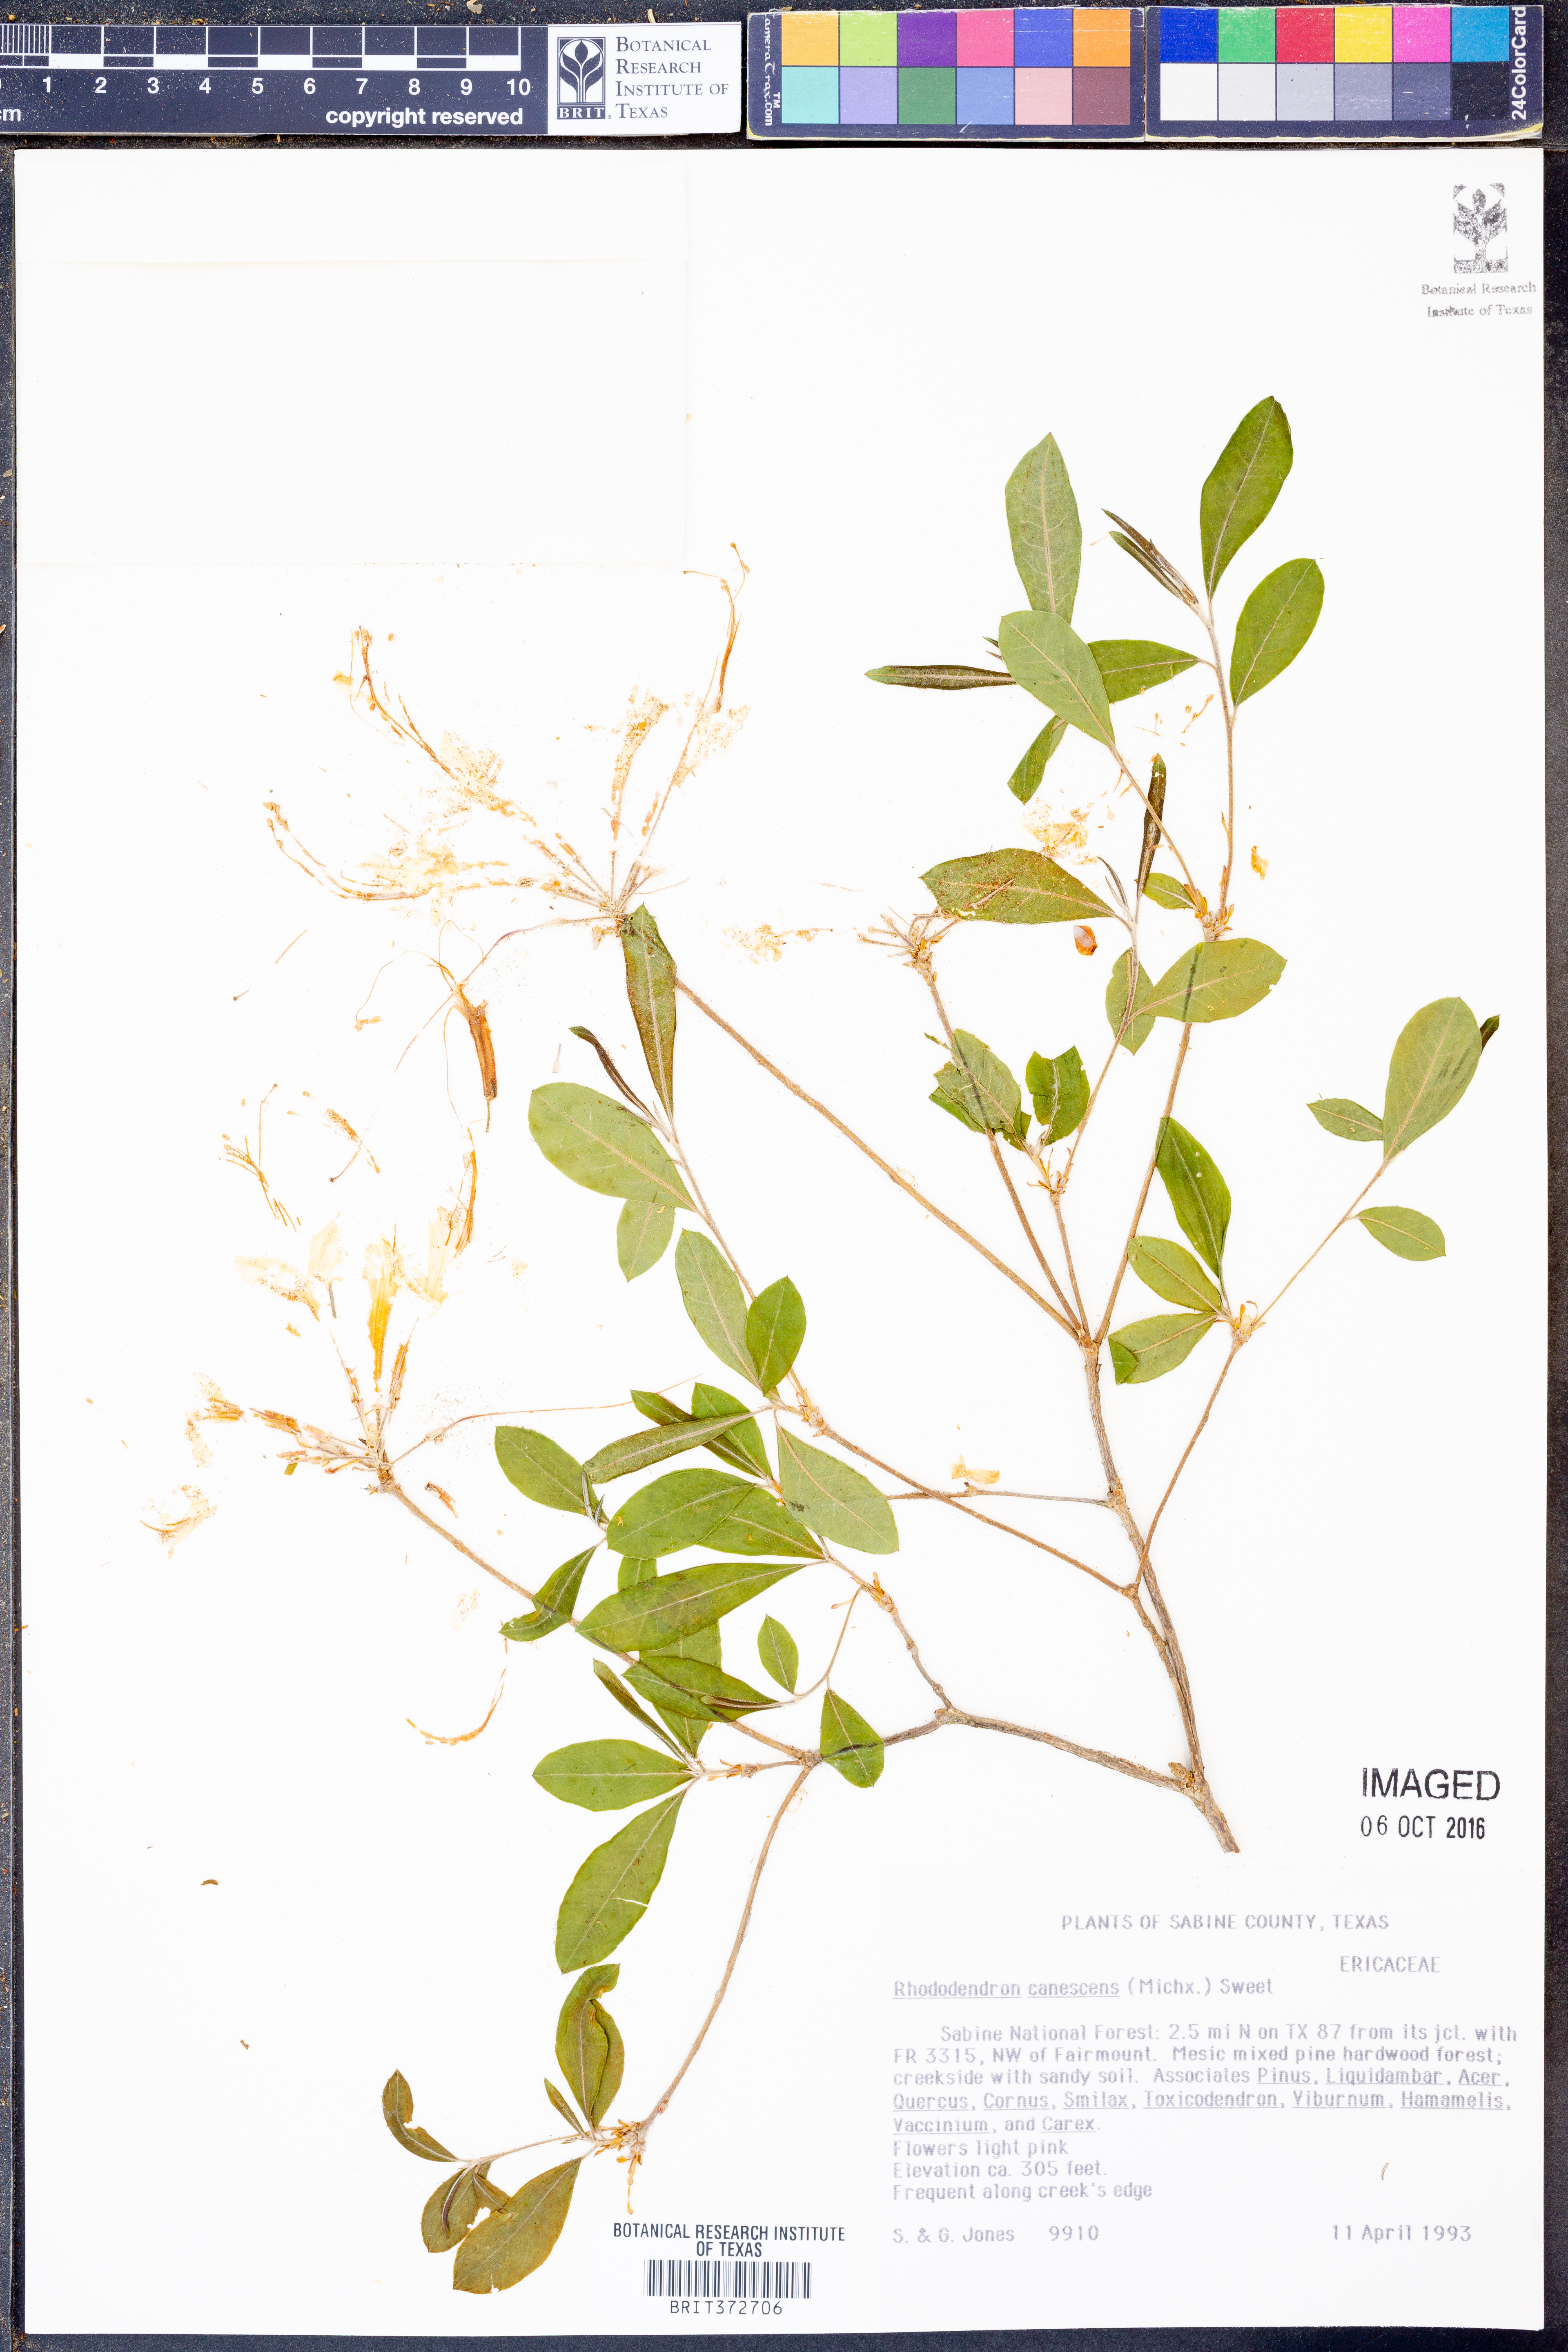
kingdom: Plantae
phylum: Tracheophyta
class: Magnoliopsida
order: Ericales
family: Ericaceae
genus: Rhododendron
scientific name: Rhododendron canescens
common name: Mountain azalea
